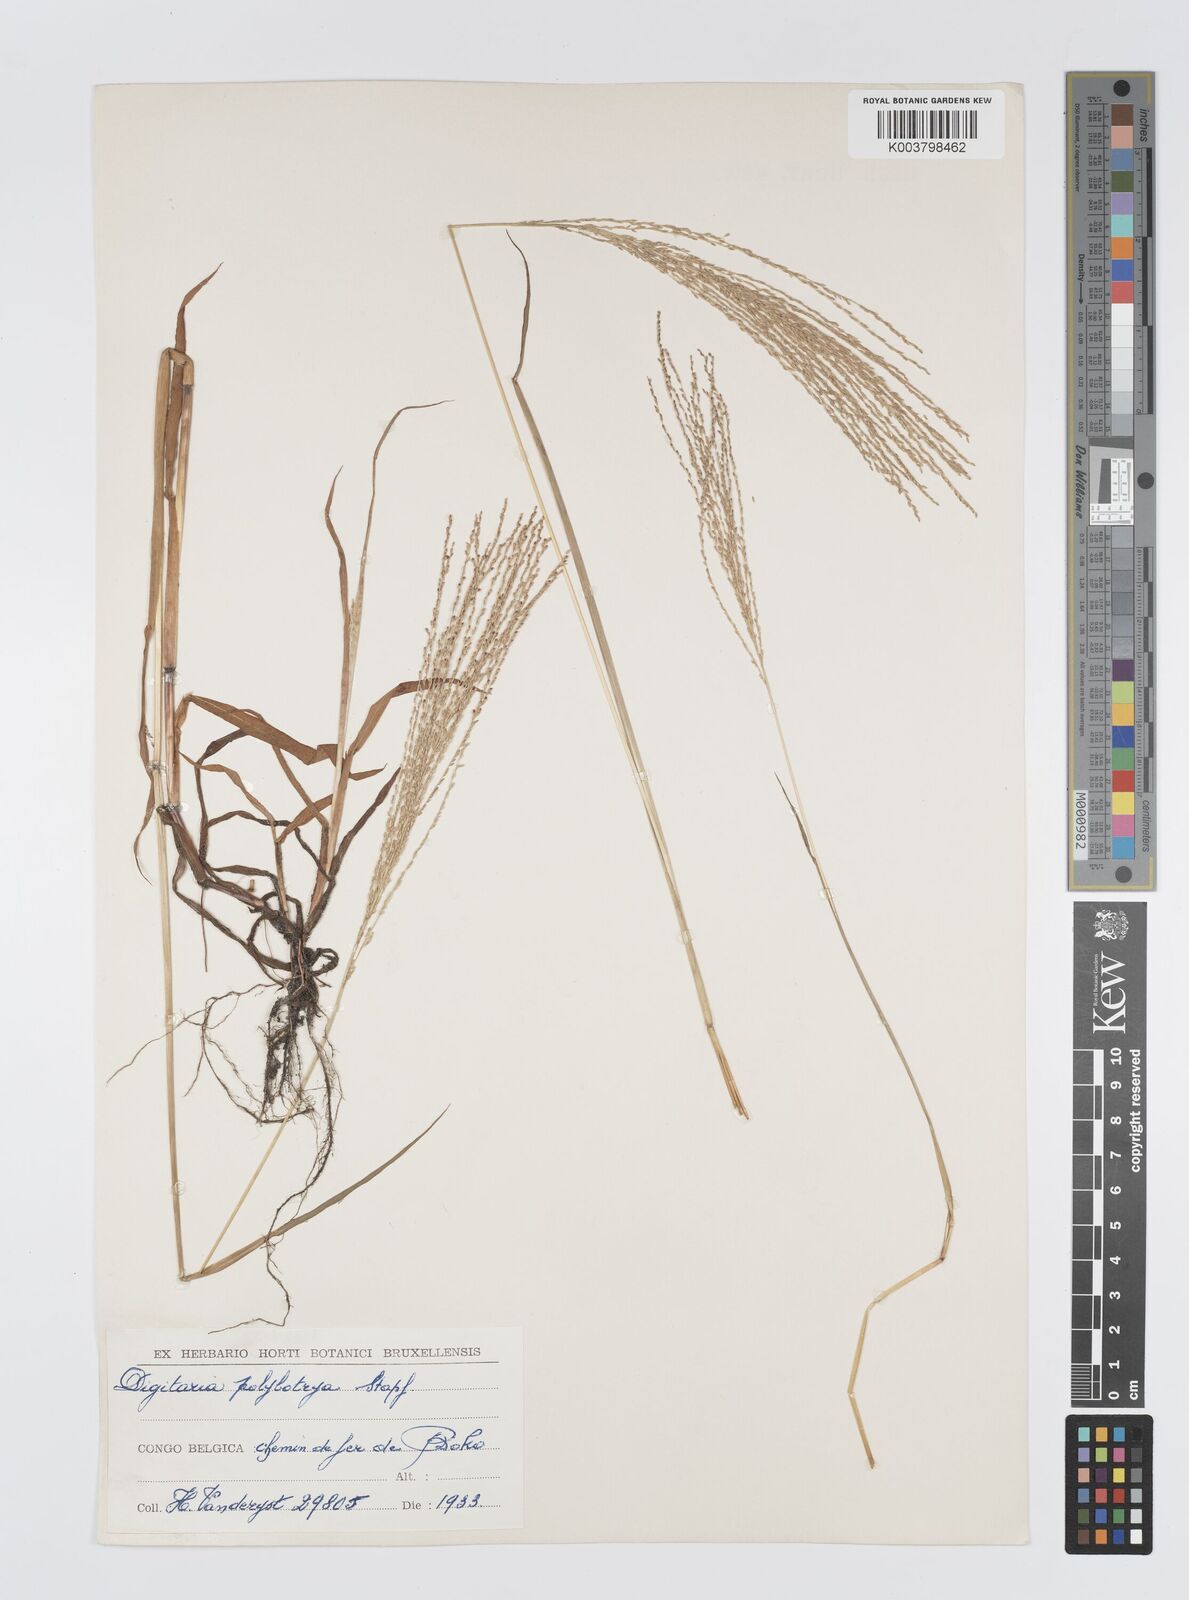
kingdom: Plantae
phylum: Tracheophyta
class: Liliopsida
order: Poales
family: Poaceae
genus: Digitaria
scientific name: Digitaria leptorhachis
